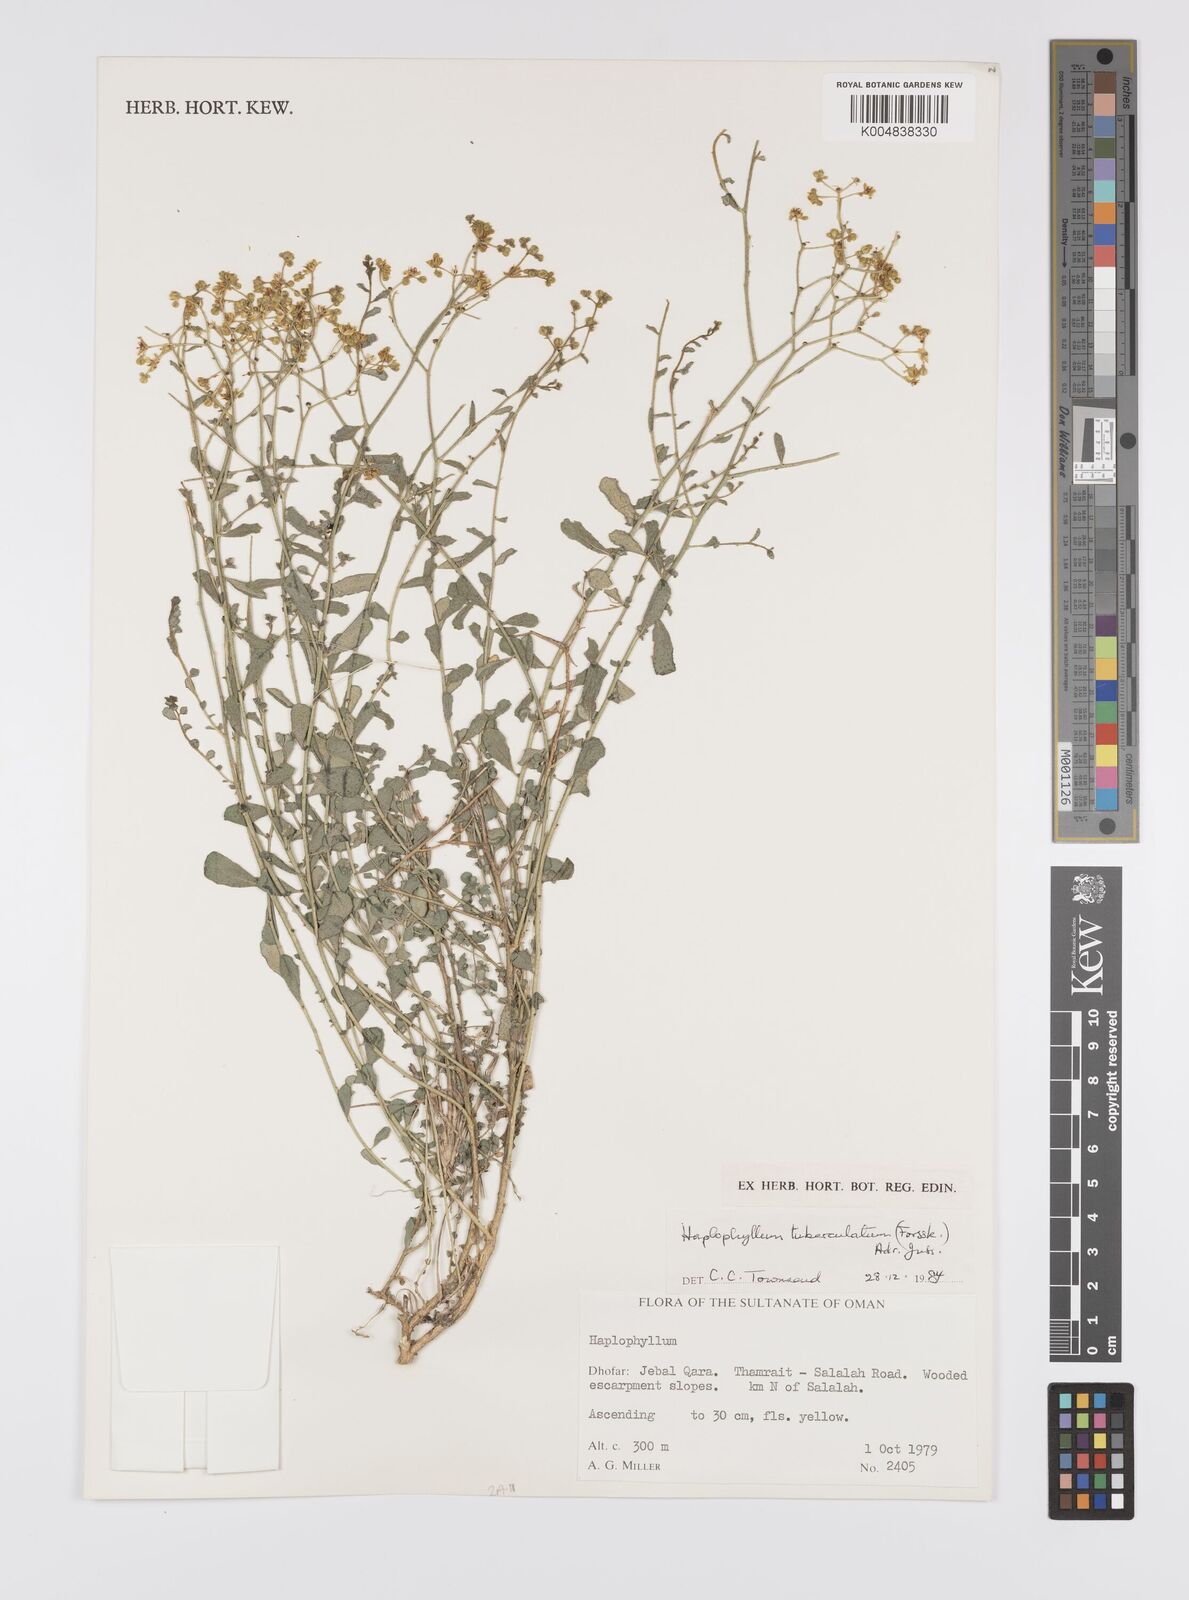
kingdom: Plantae
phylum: Tracheophyta
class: Magnoliopsida
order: Sapindales
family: Rutaceae
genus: Haplophyllum
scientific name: Haplophyllum tuberculatum
